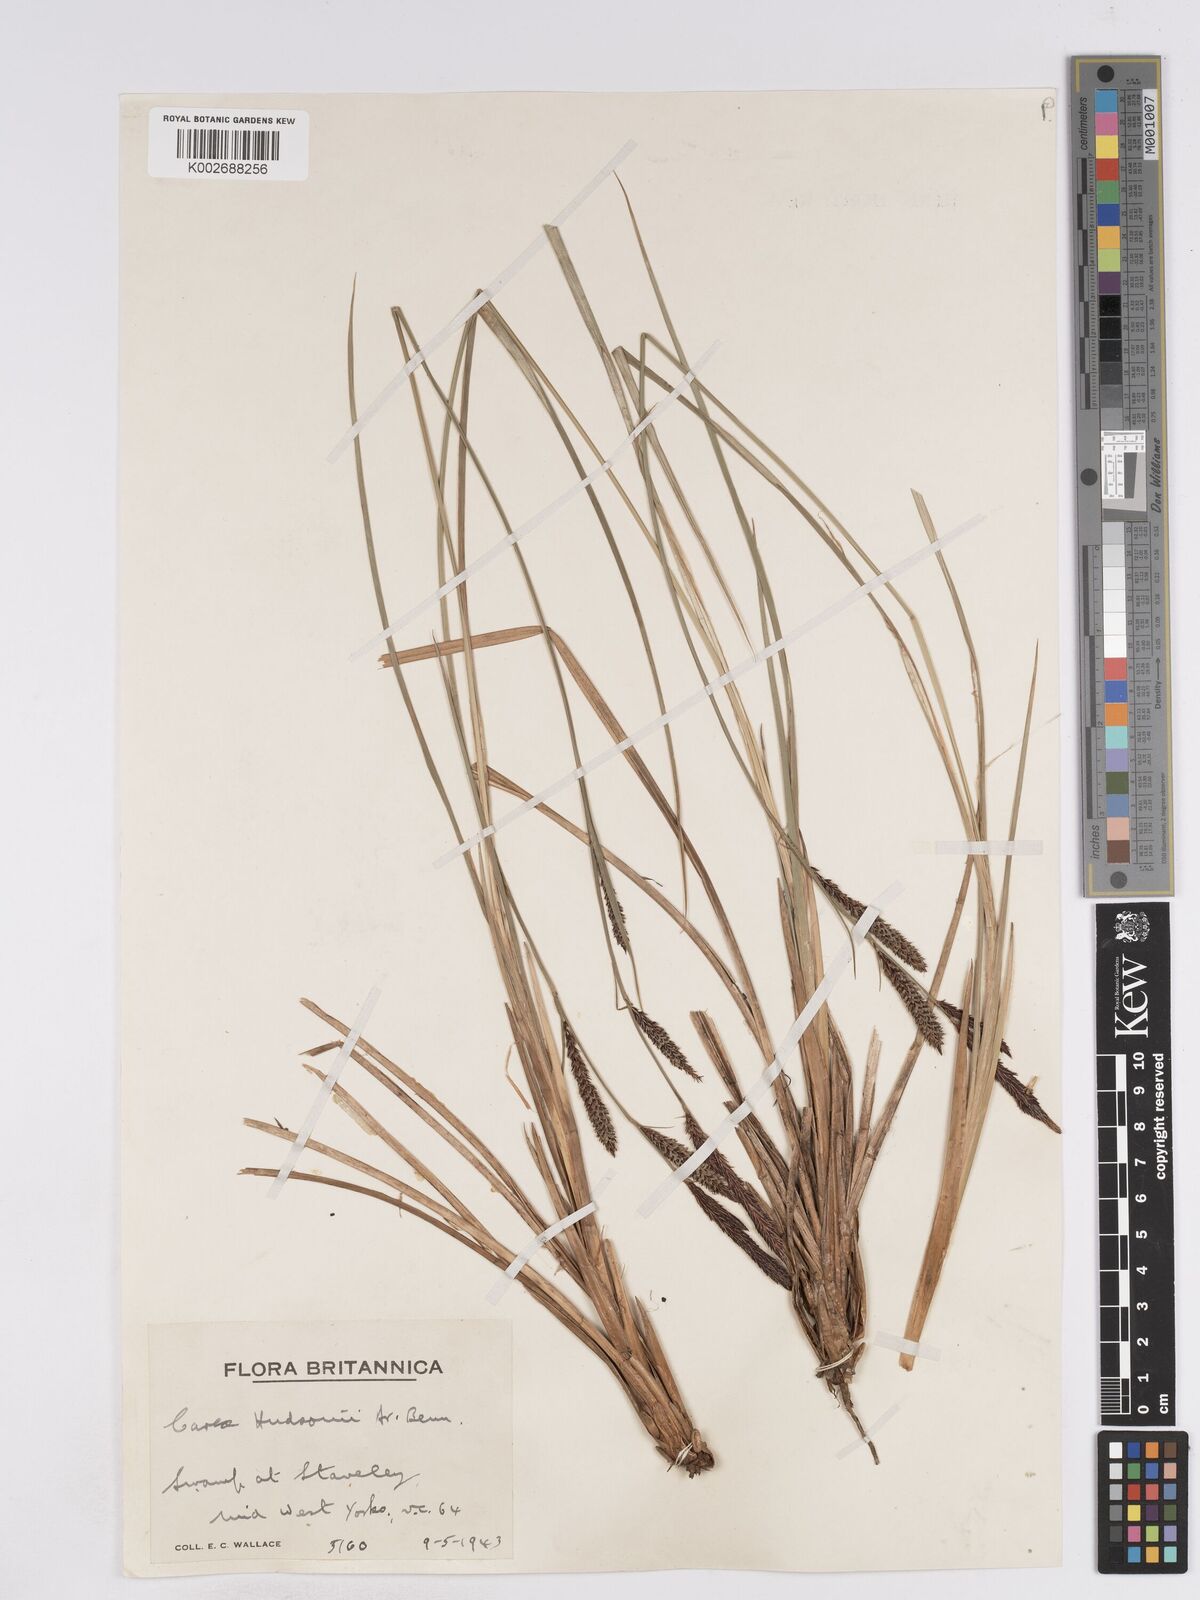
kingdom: Plantae
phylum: Tracheophyta
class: Liliopsida
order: Poales
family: Cyperaceae
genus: Carex
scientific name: Carex elata
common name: Tufted sedge
